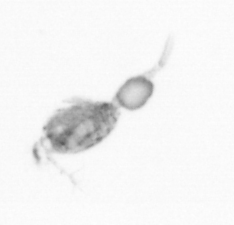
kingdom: Animalia
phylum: Arthropoda
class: Copepoda
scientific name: Copepoda
